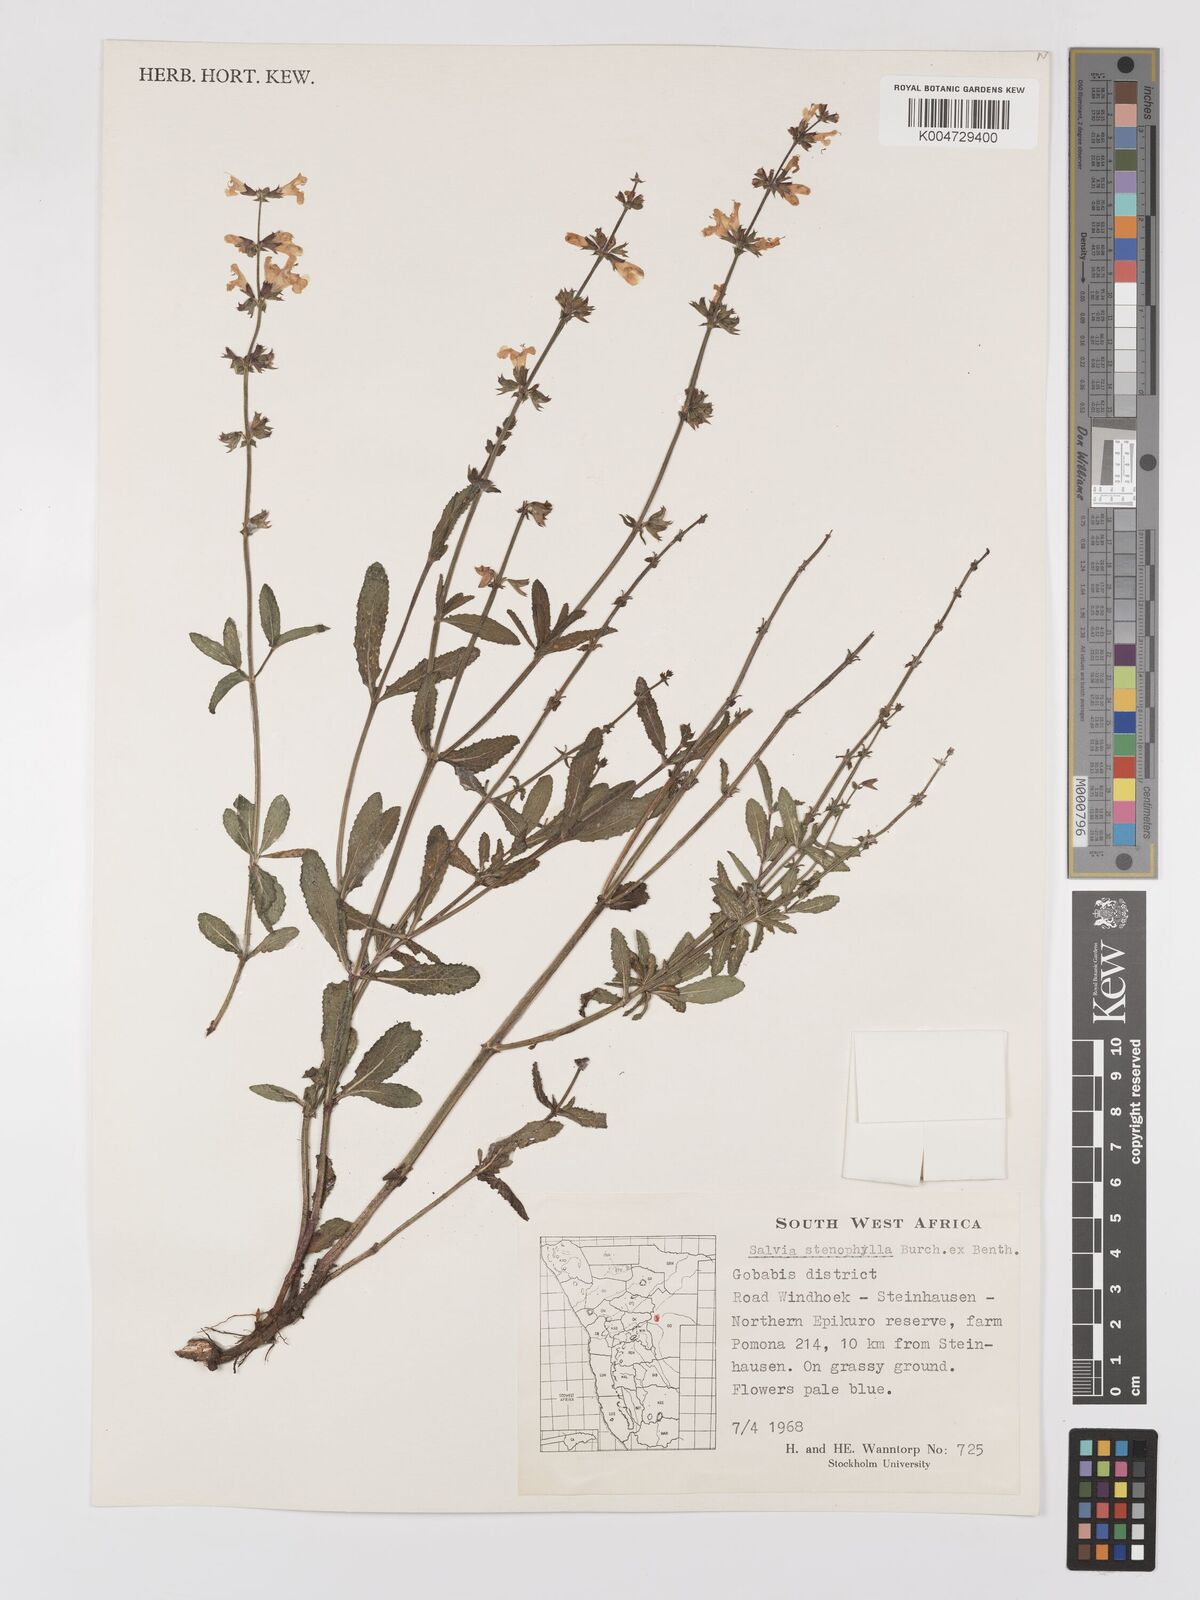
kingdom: Plantae
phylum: Tracheophyta
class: Magnoliopsida
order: Lamiales
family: Lamiaceae
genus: Salvia
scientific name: Salvia stenophylla
